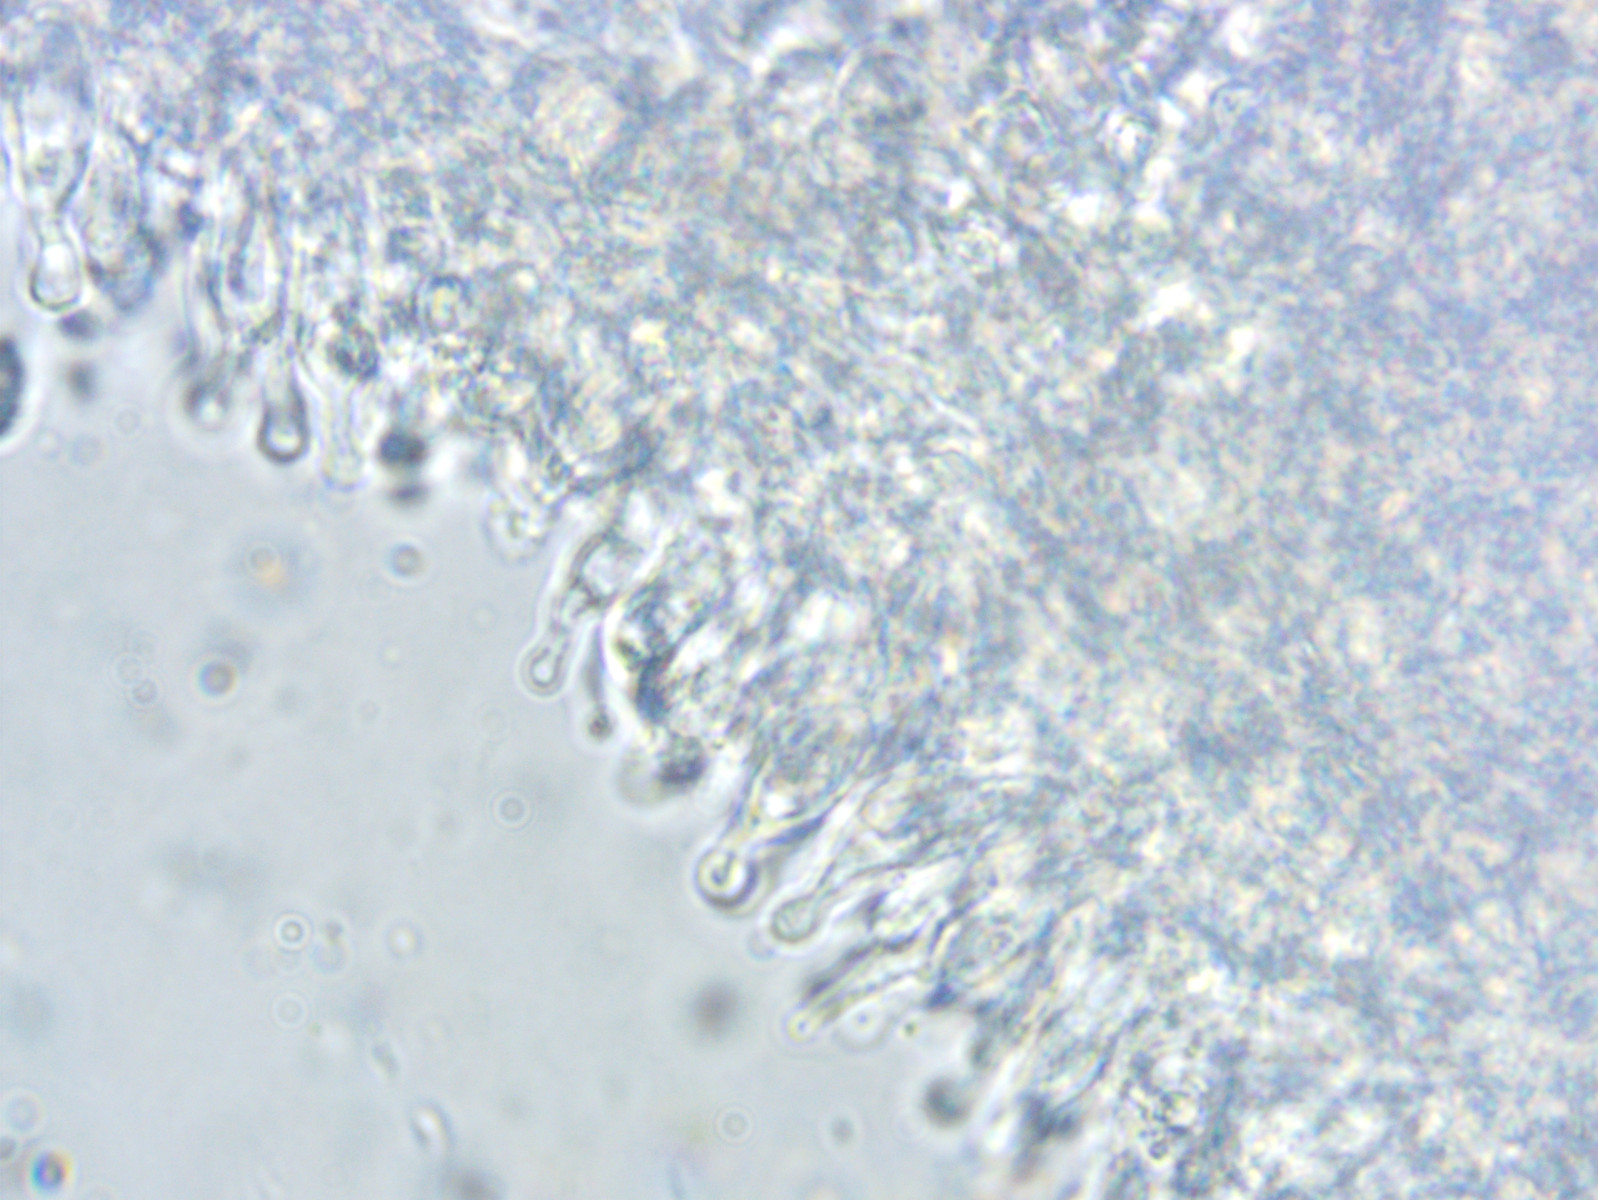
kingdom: Fungi
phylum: Basidiomycota
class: Agaricomycetes
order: Agaricales
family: Mycenaceae
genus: Hemimycena
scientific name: Hemimycena lactea
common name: mælkehvid huesvamp
